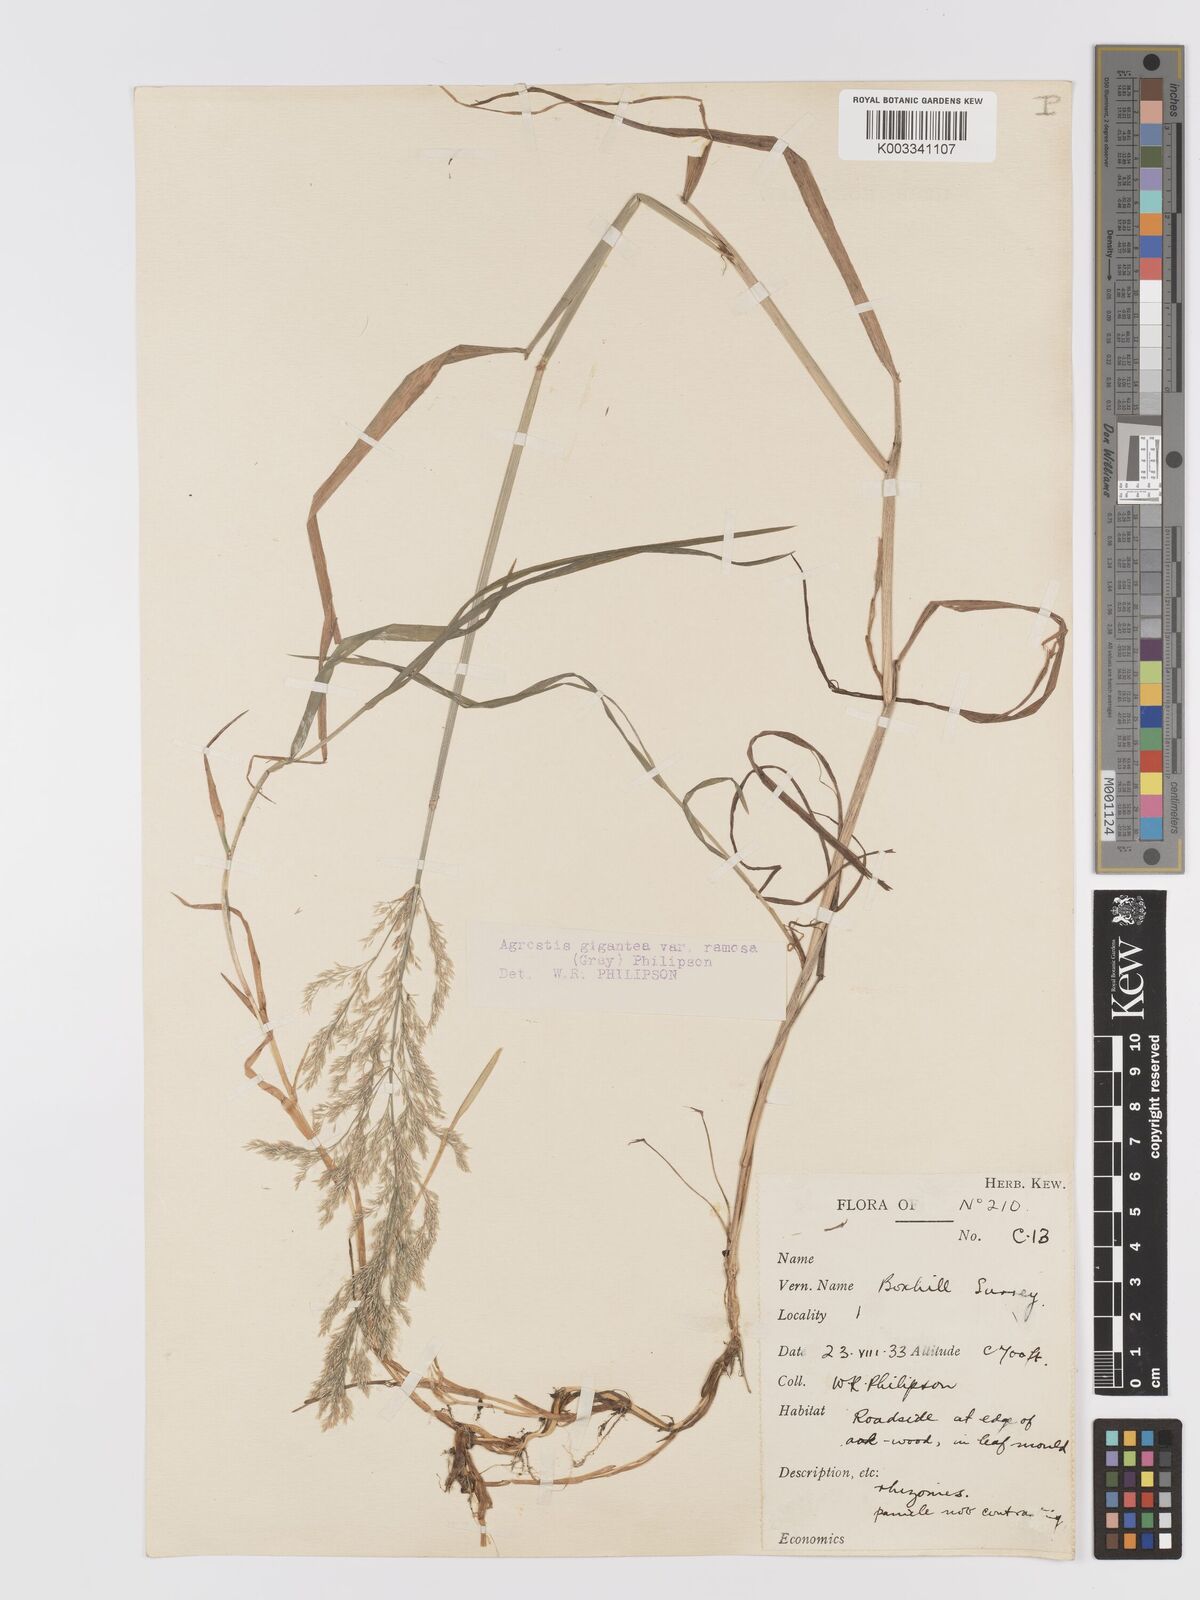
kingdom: Plantae
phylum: Tracheophyta
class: Liliopsida
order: Poales
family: Poaceae
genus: Agrostis
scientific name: Agrostis gigantea
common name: Black bent
